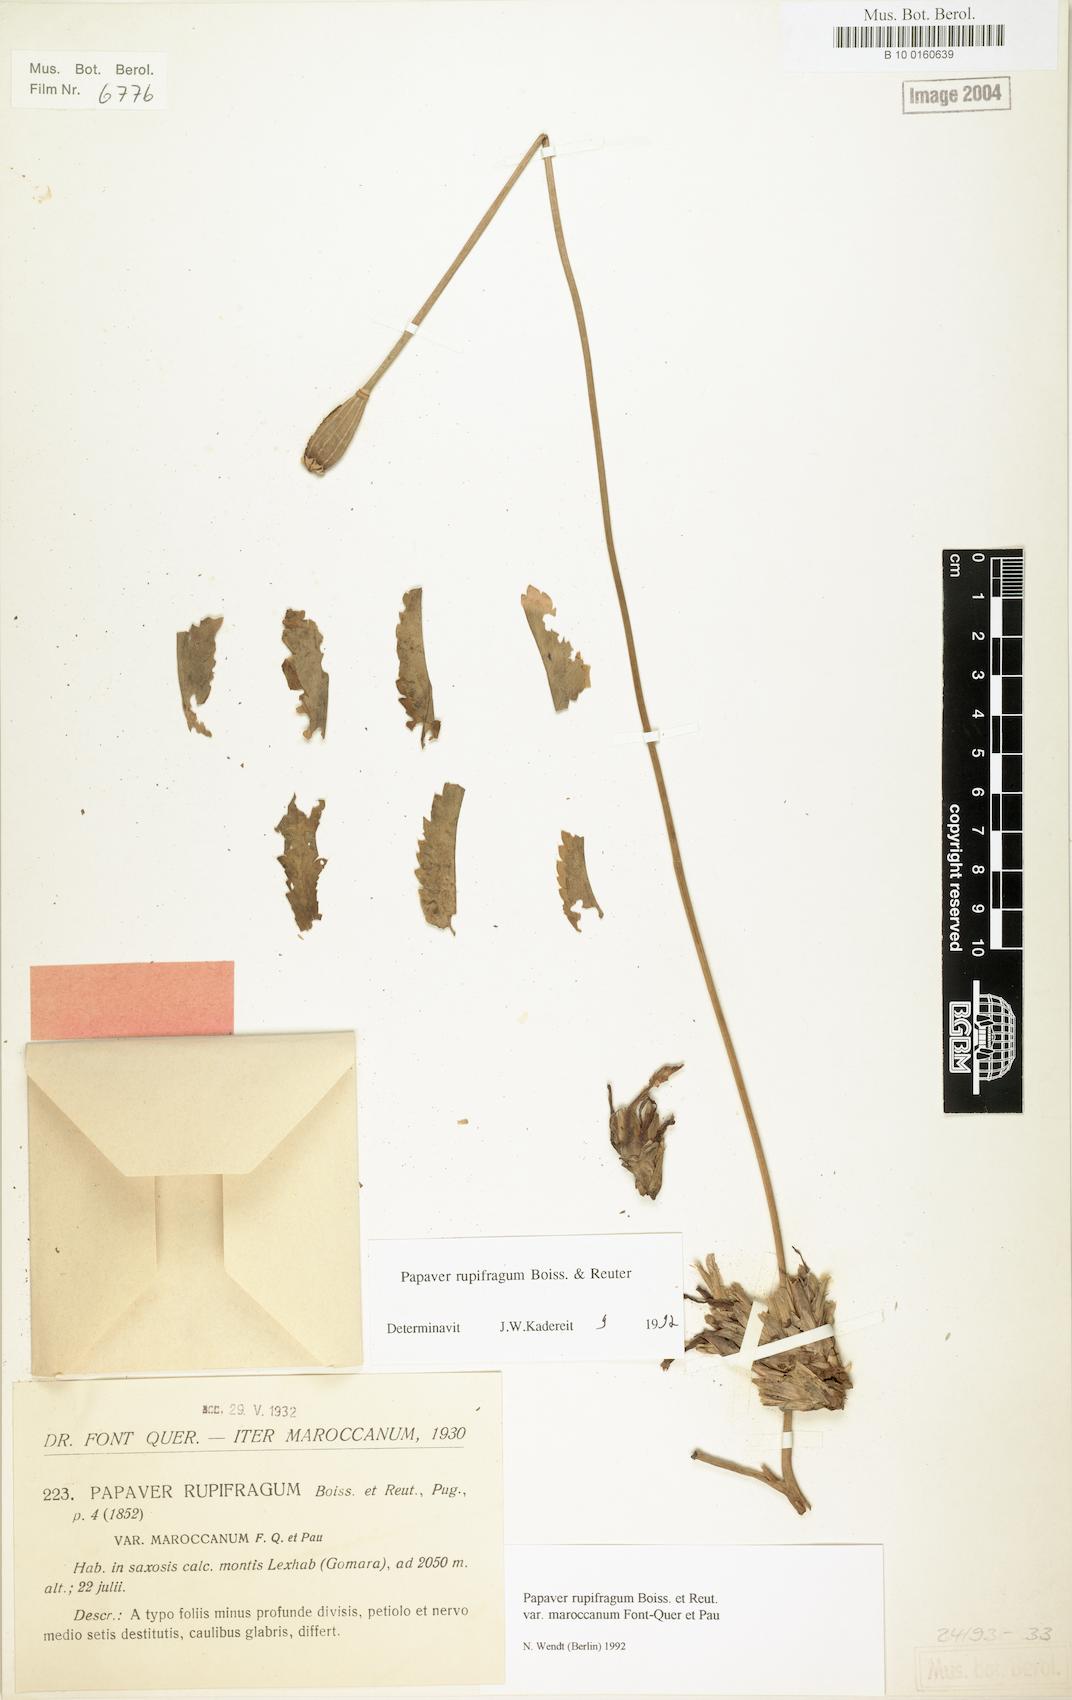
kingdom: Plantae
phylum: Tracheophyta
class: Magnoliopsida
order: Ranunculales
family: Papaveraceae
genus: Papaver
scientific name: Papaver rupifragum
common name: Spanish poppy
